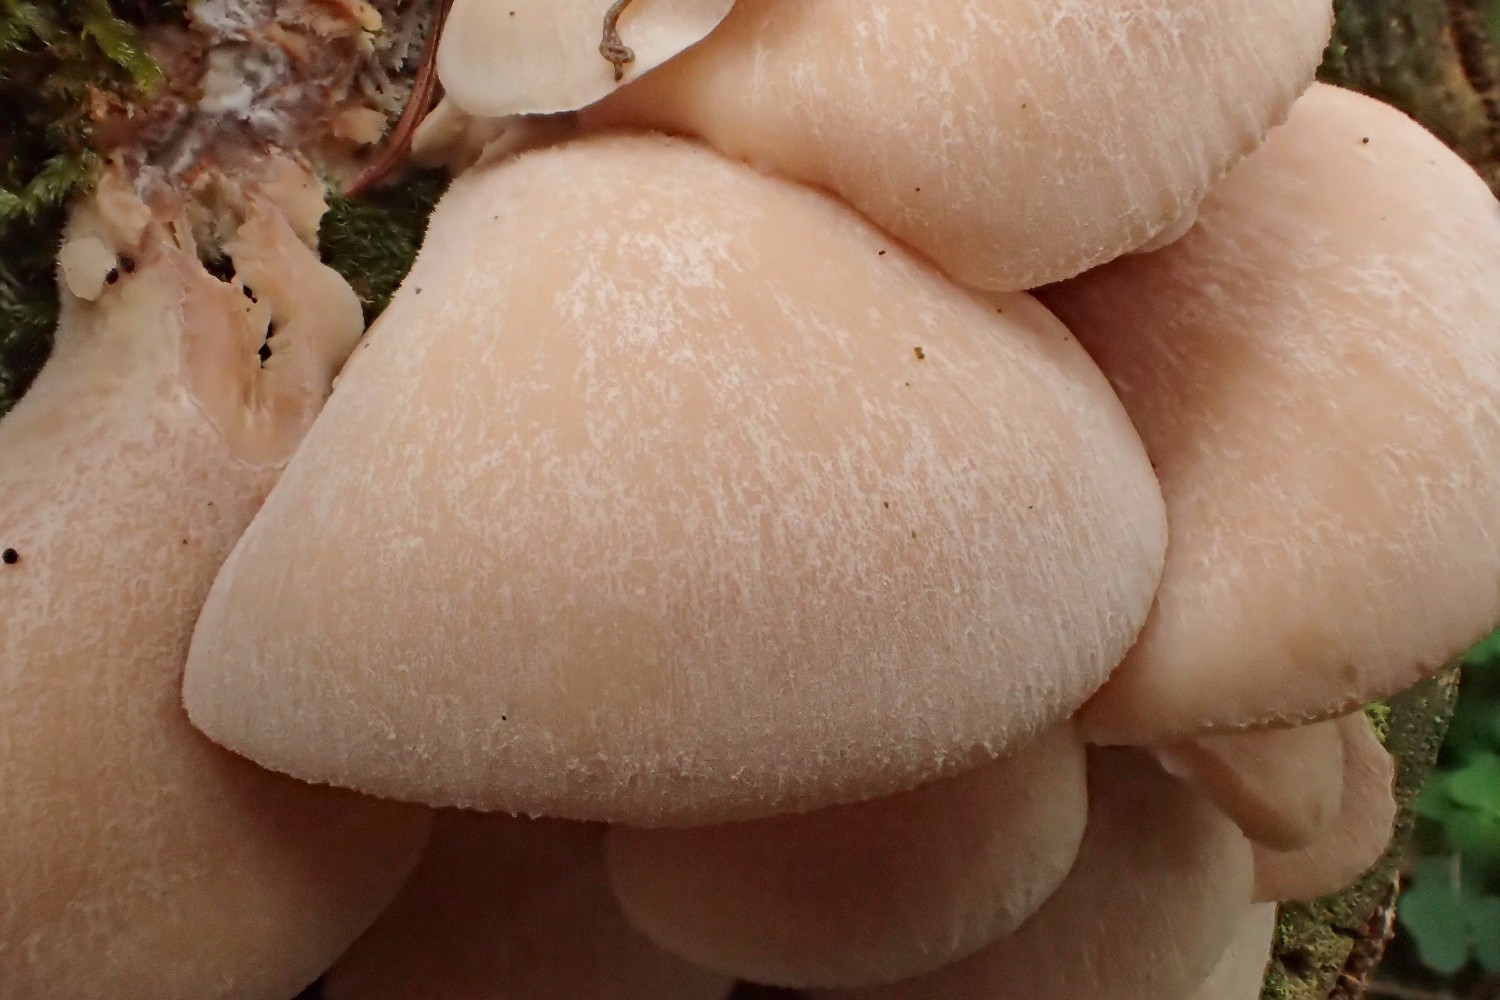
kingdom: Fungi
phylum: Basidiomycota
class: Agaricomycetes
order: Russulales
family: Auriscalpiaceae
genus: Lentinellus
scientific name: Lentinellus ursinus
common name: børstehåret savbladhat
